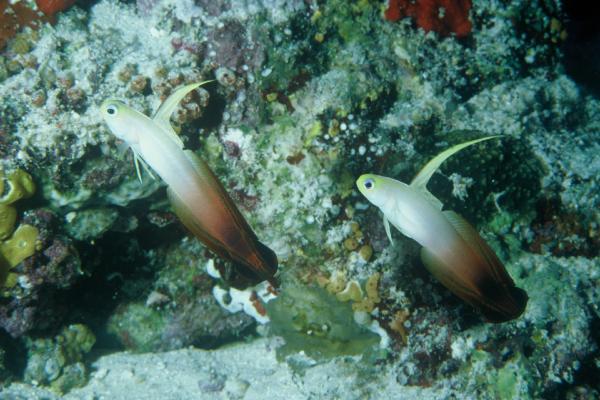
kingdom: Animalia
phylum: Chordata
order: Perciformes
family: Microdesmidae
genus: Nemateleotris
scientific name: Nemateleotris magnifica
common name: Fire goby
